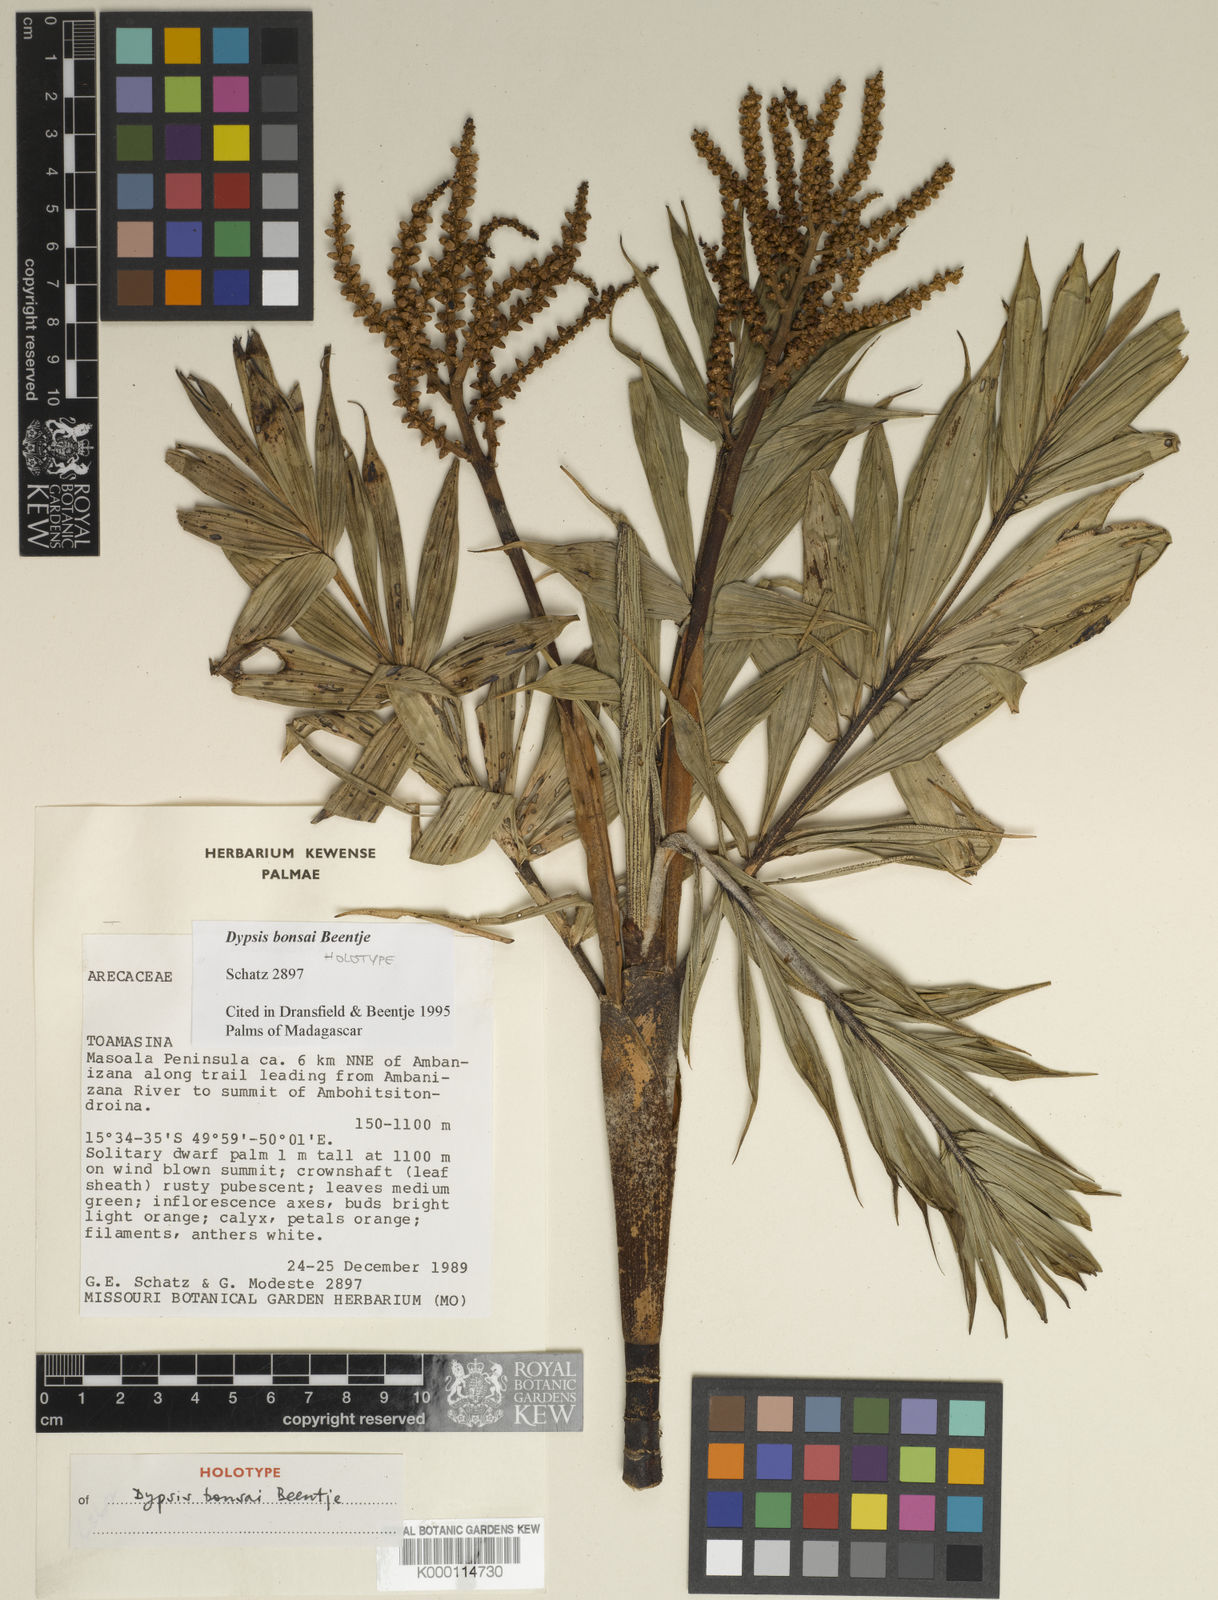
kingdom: Plantae
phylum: Tracheophyta
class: Liliopsida
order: Arecales
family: Arecaceae
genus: Dypsis
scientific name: Dypsis bonsai
